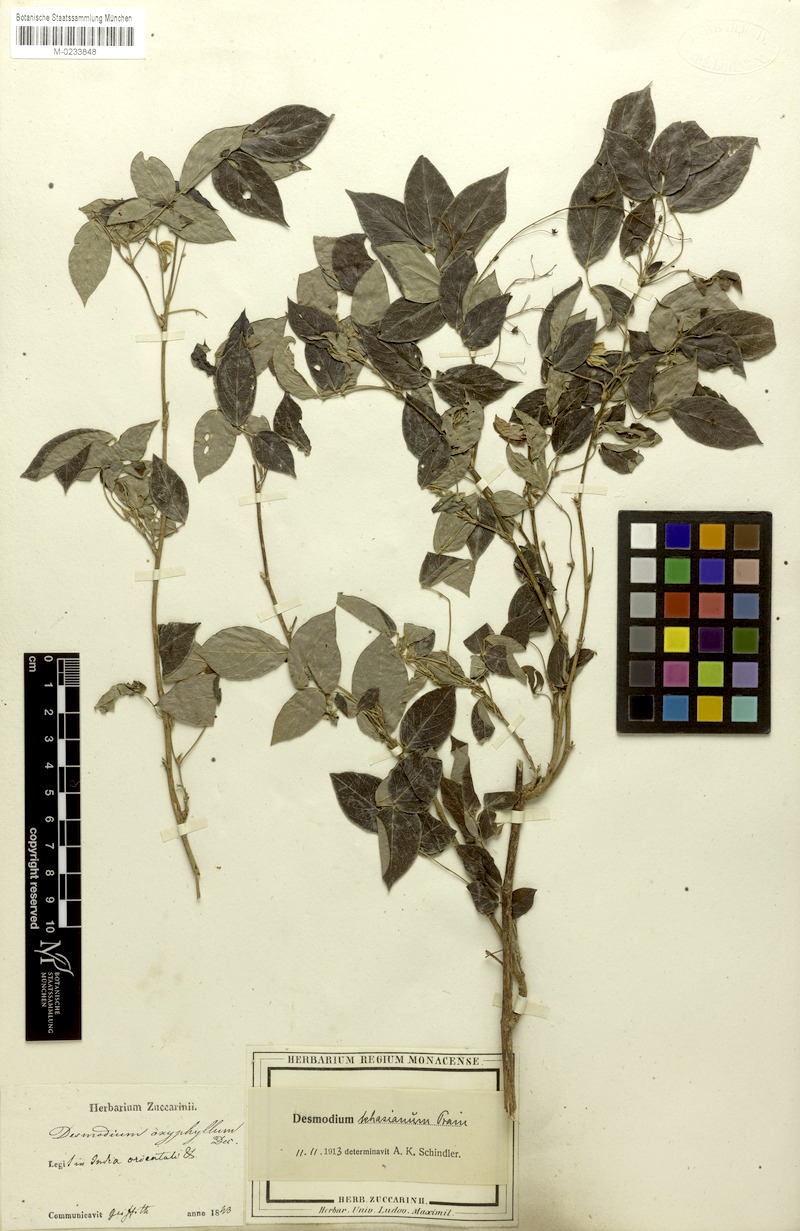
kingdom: Plantae
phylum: Tracheophyta
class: Magnoliopsida
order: Fabales
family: Fabaceae
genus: Ototropis
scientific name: Ototropis khasiana
